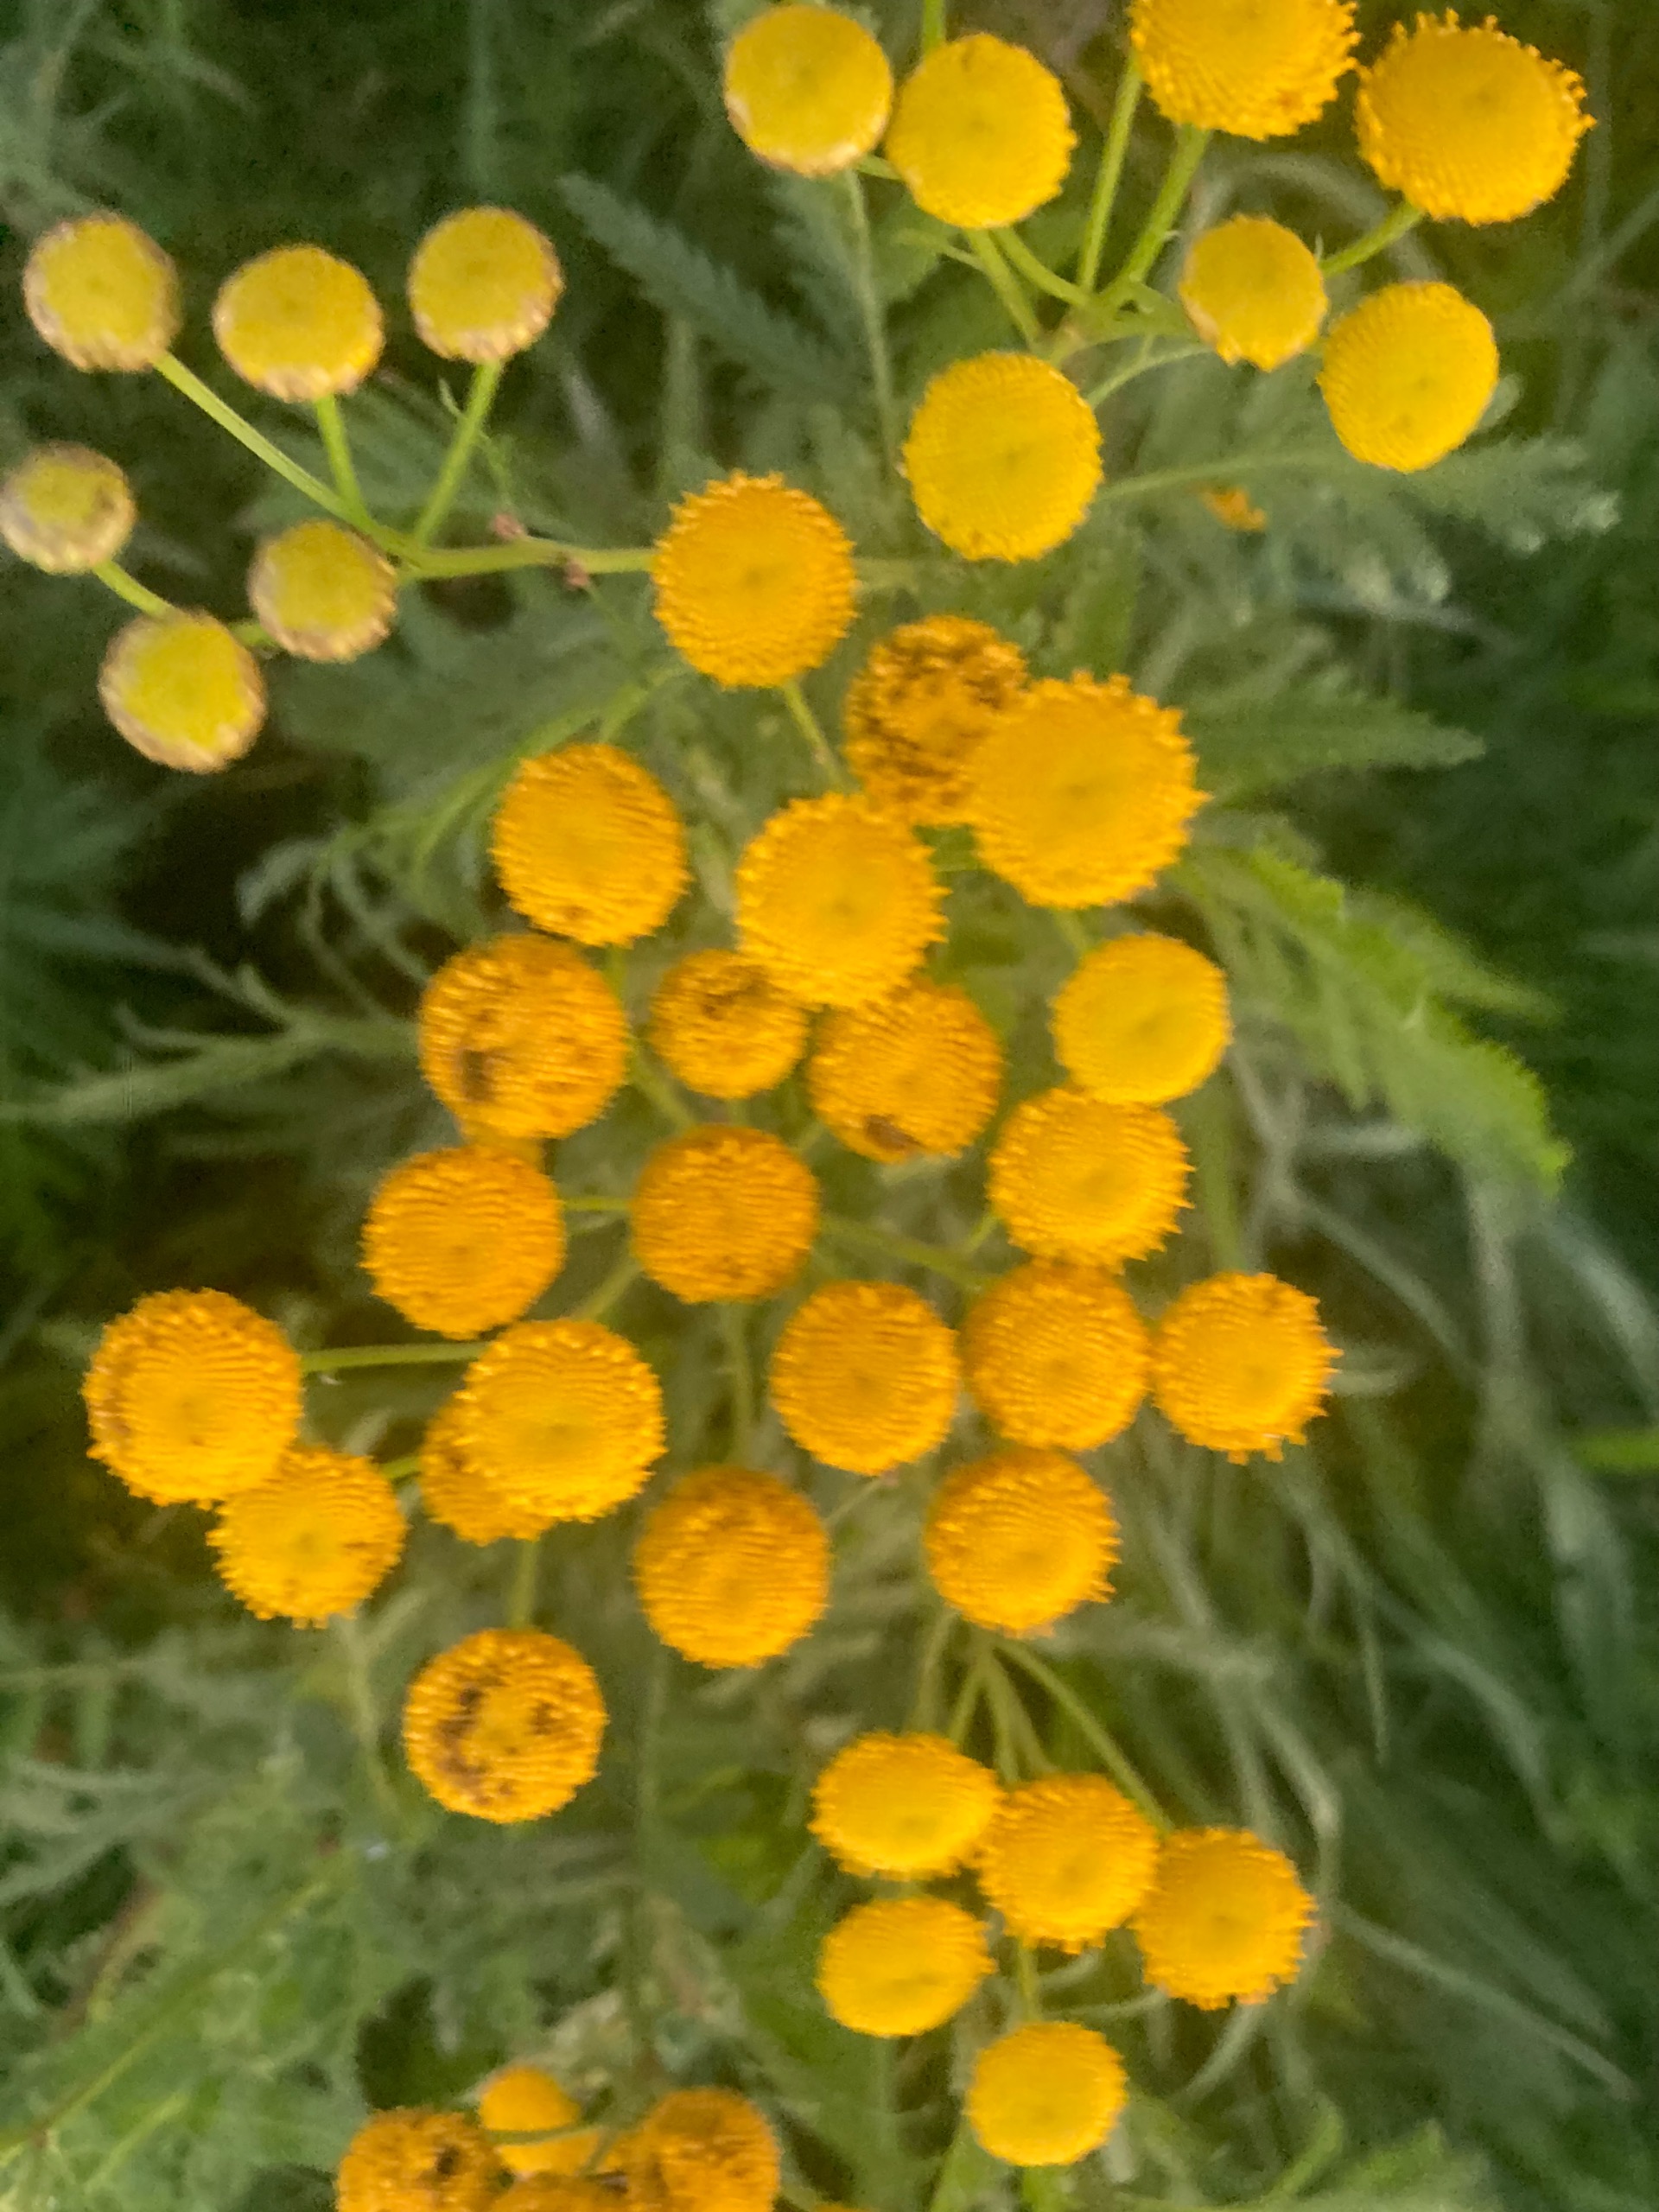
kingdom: Plantae
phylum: Tracheophyta
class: Magnoliopsida
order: Asterales
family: Asteraceae
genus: Tanacetum
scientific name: Tanacetum vulgare
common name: Rejnfan
